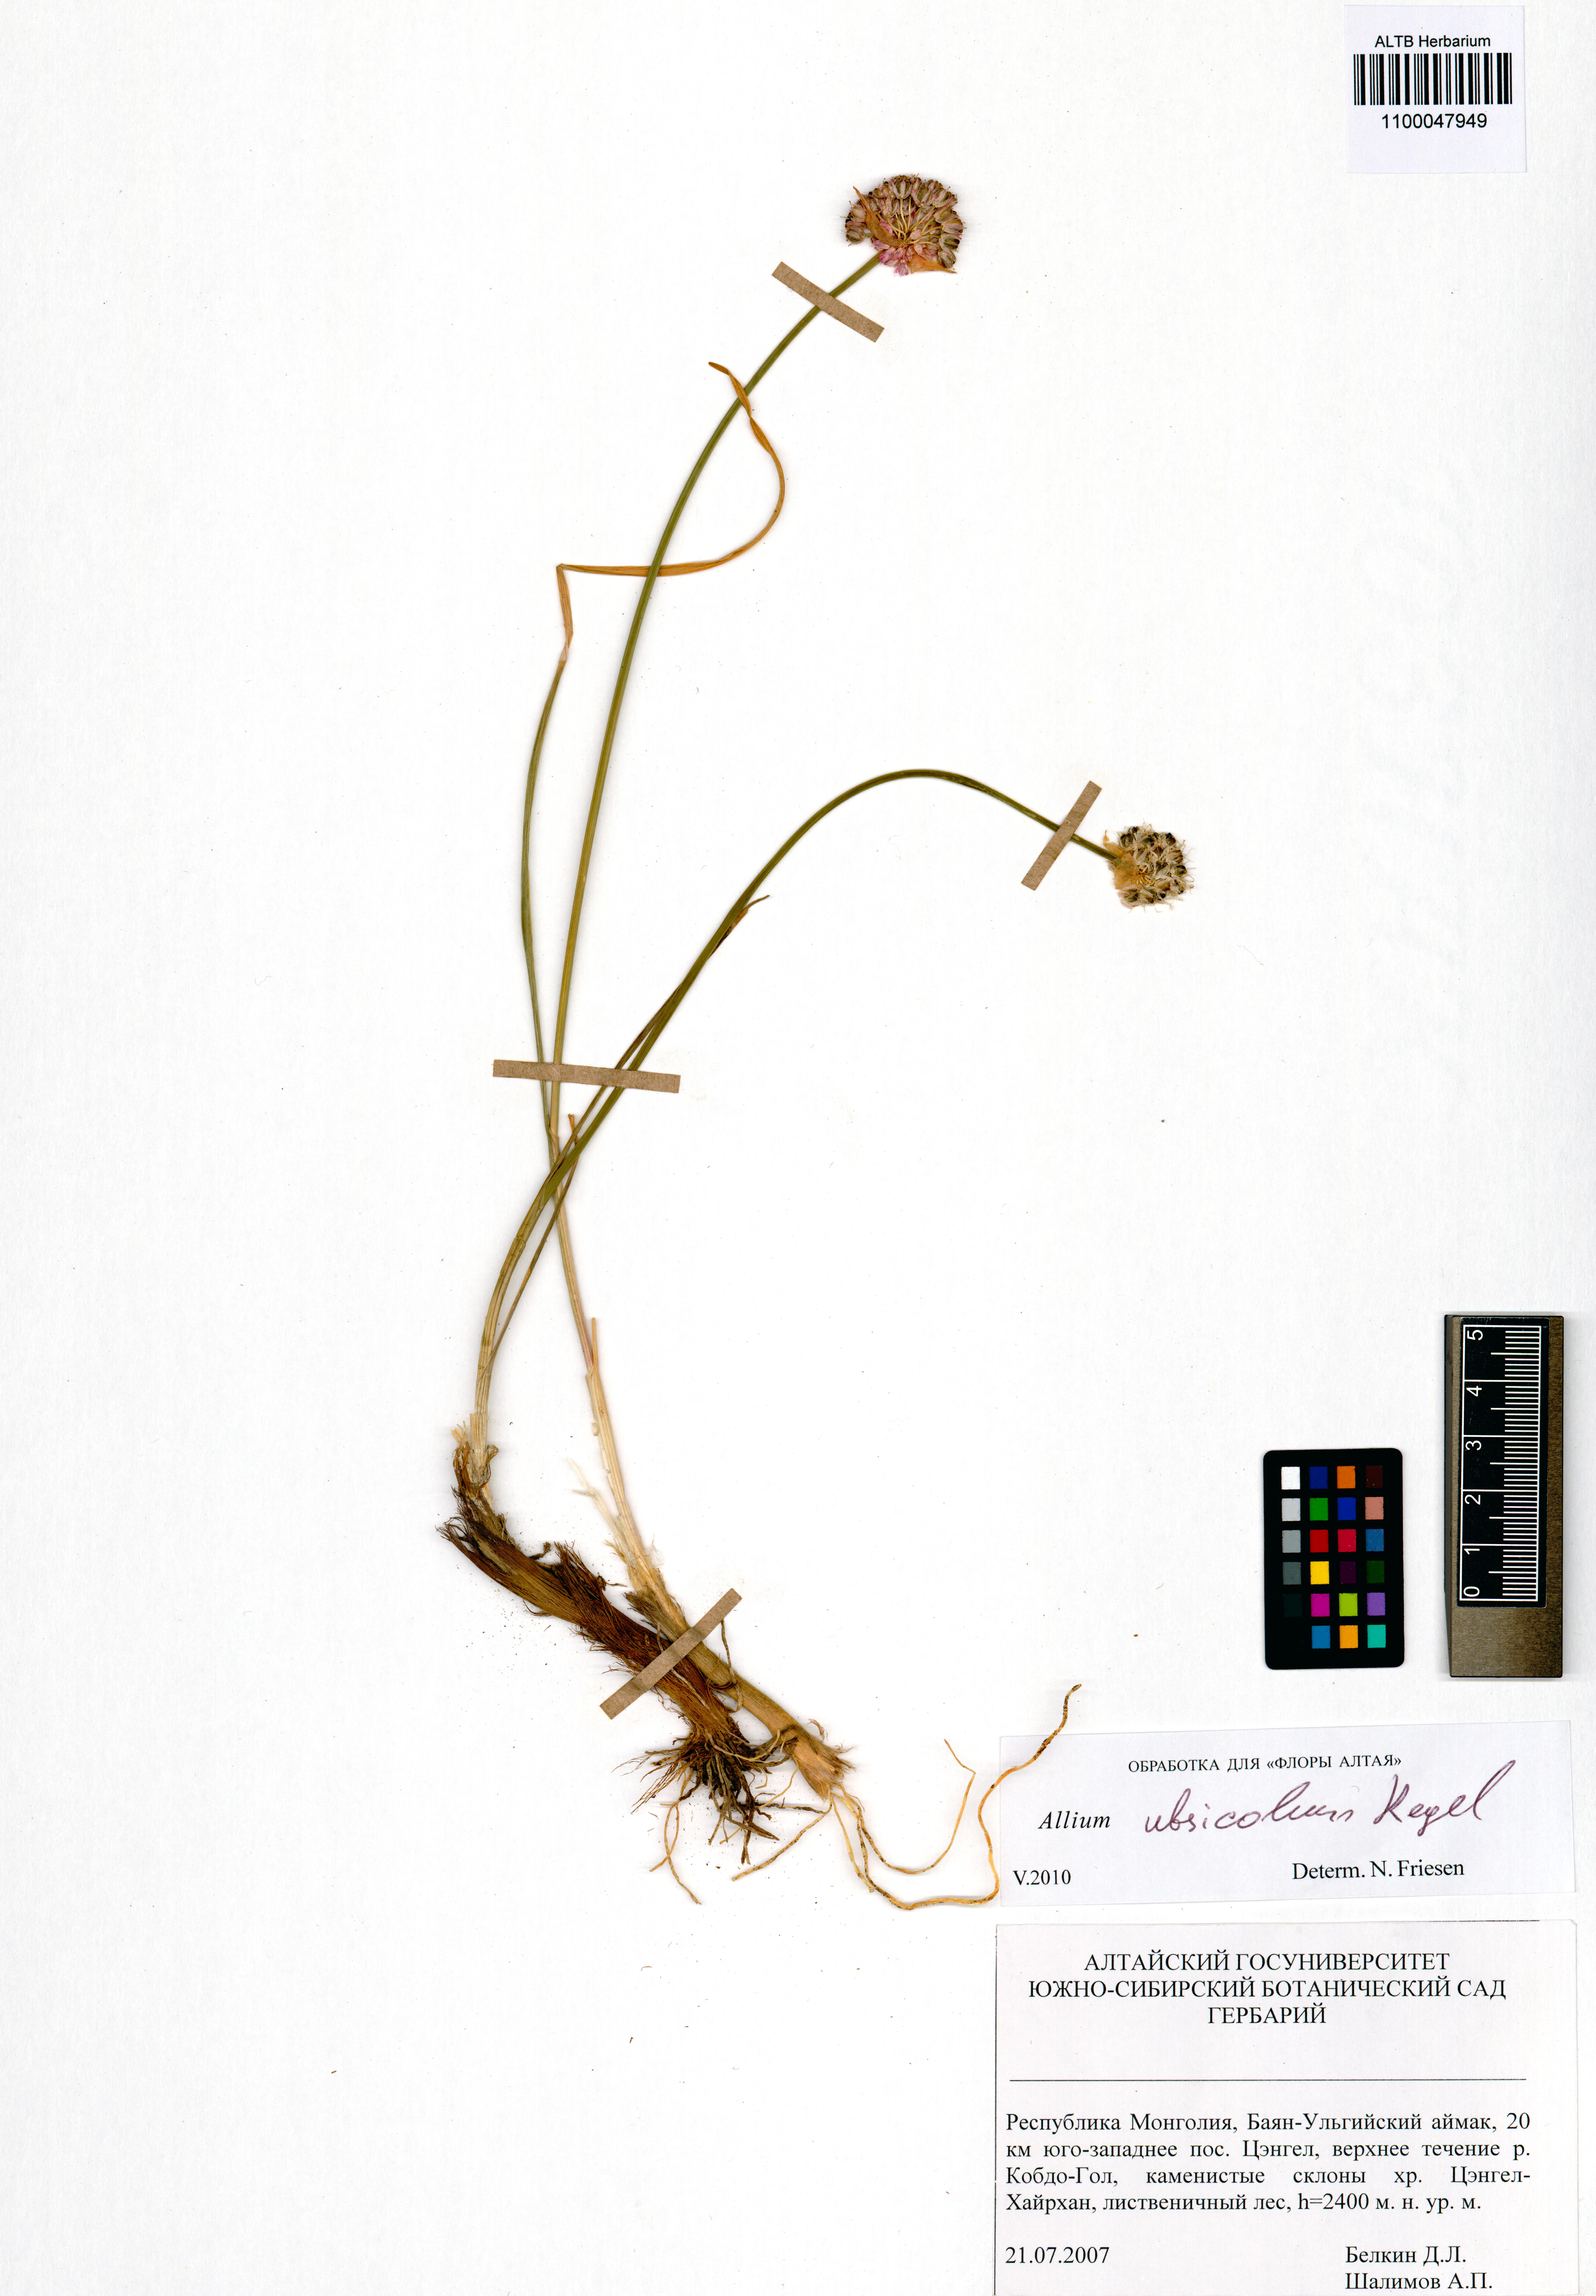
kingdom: Plantae
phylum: Tracheophyta
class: Liliopsida
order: Asparagales
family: Amaryllidaceae
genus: Allium
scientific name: Allium ubsicola
